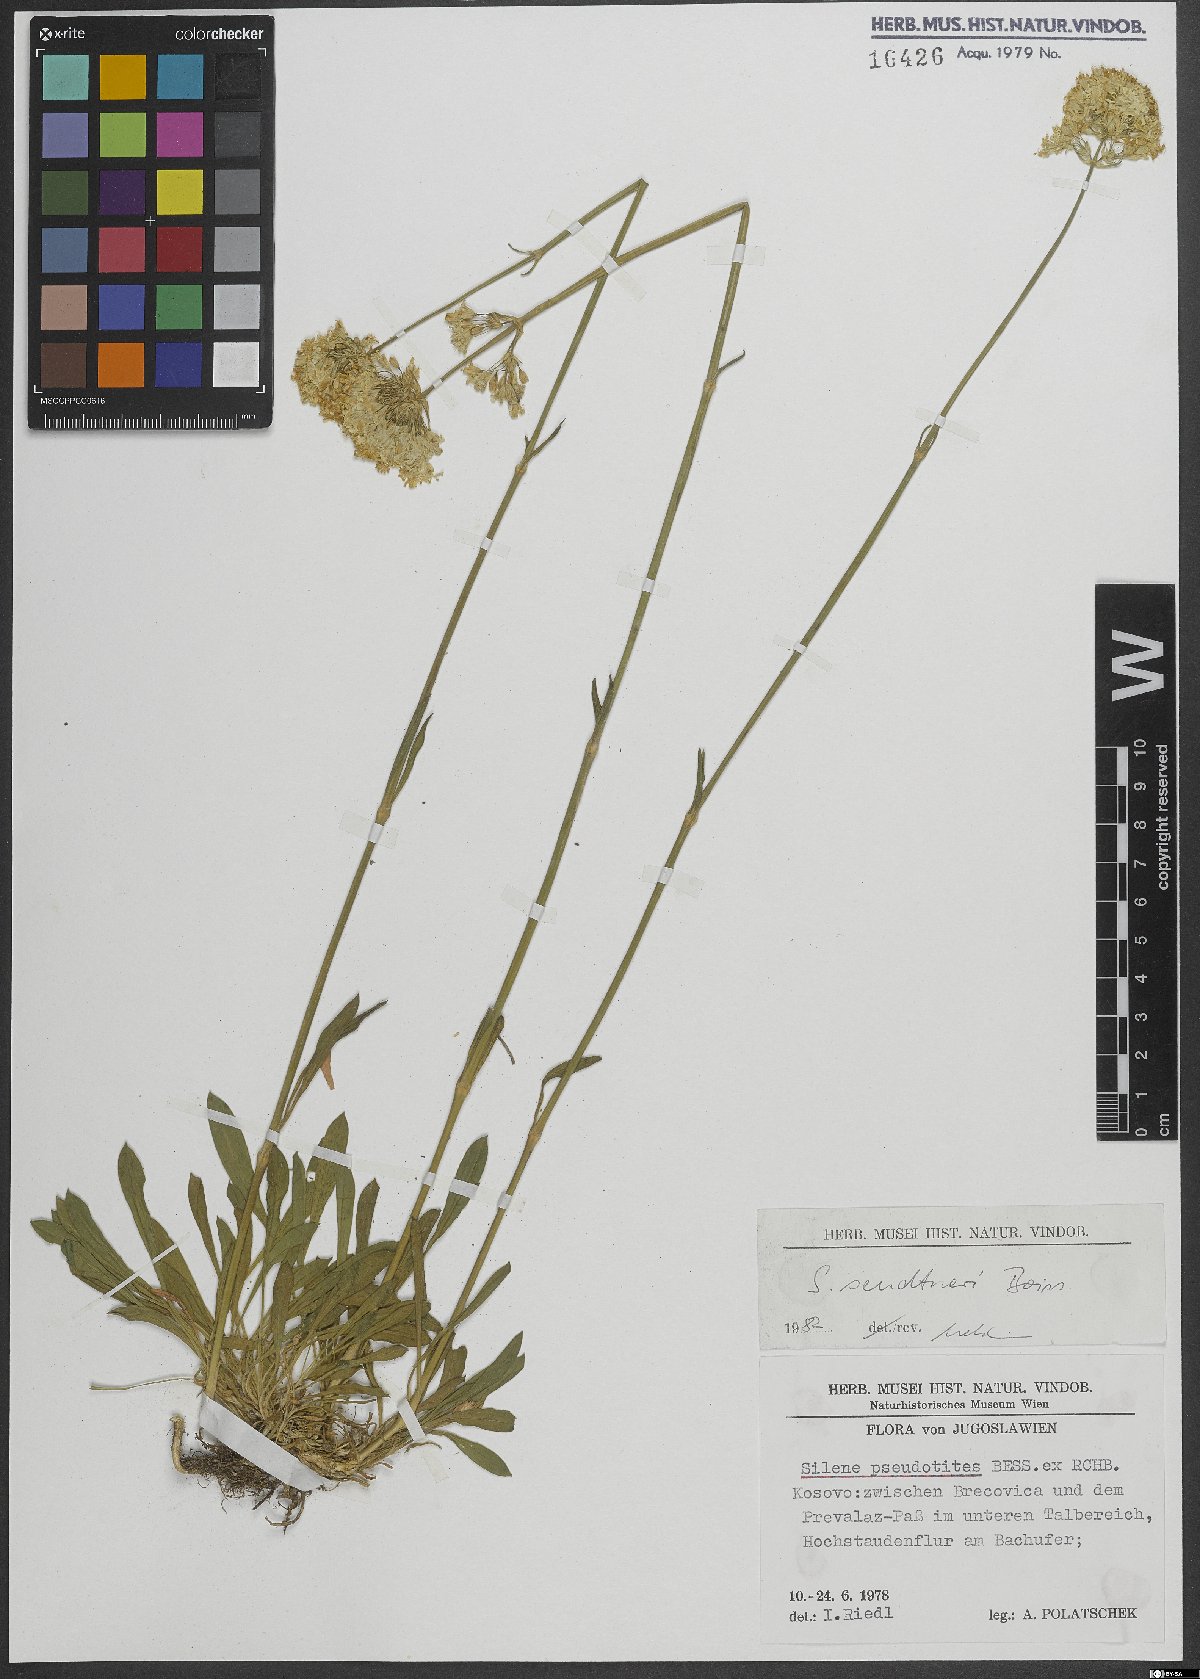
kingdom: Plantae
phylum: Tracheophyta
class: Magnoliopsida
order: Caryophyllales
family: Caryophyllaceae
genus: Silene
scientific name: Silene sendtneri
